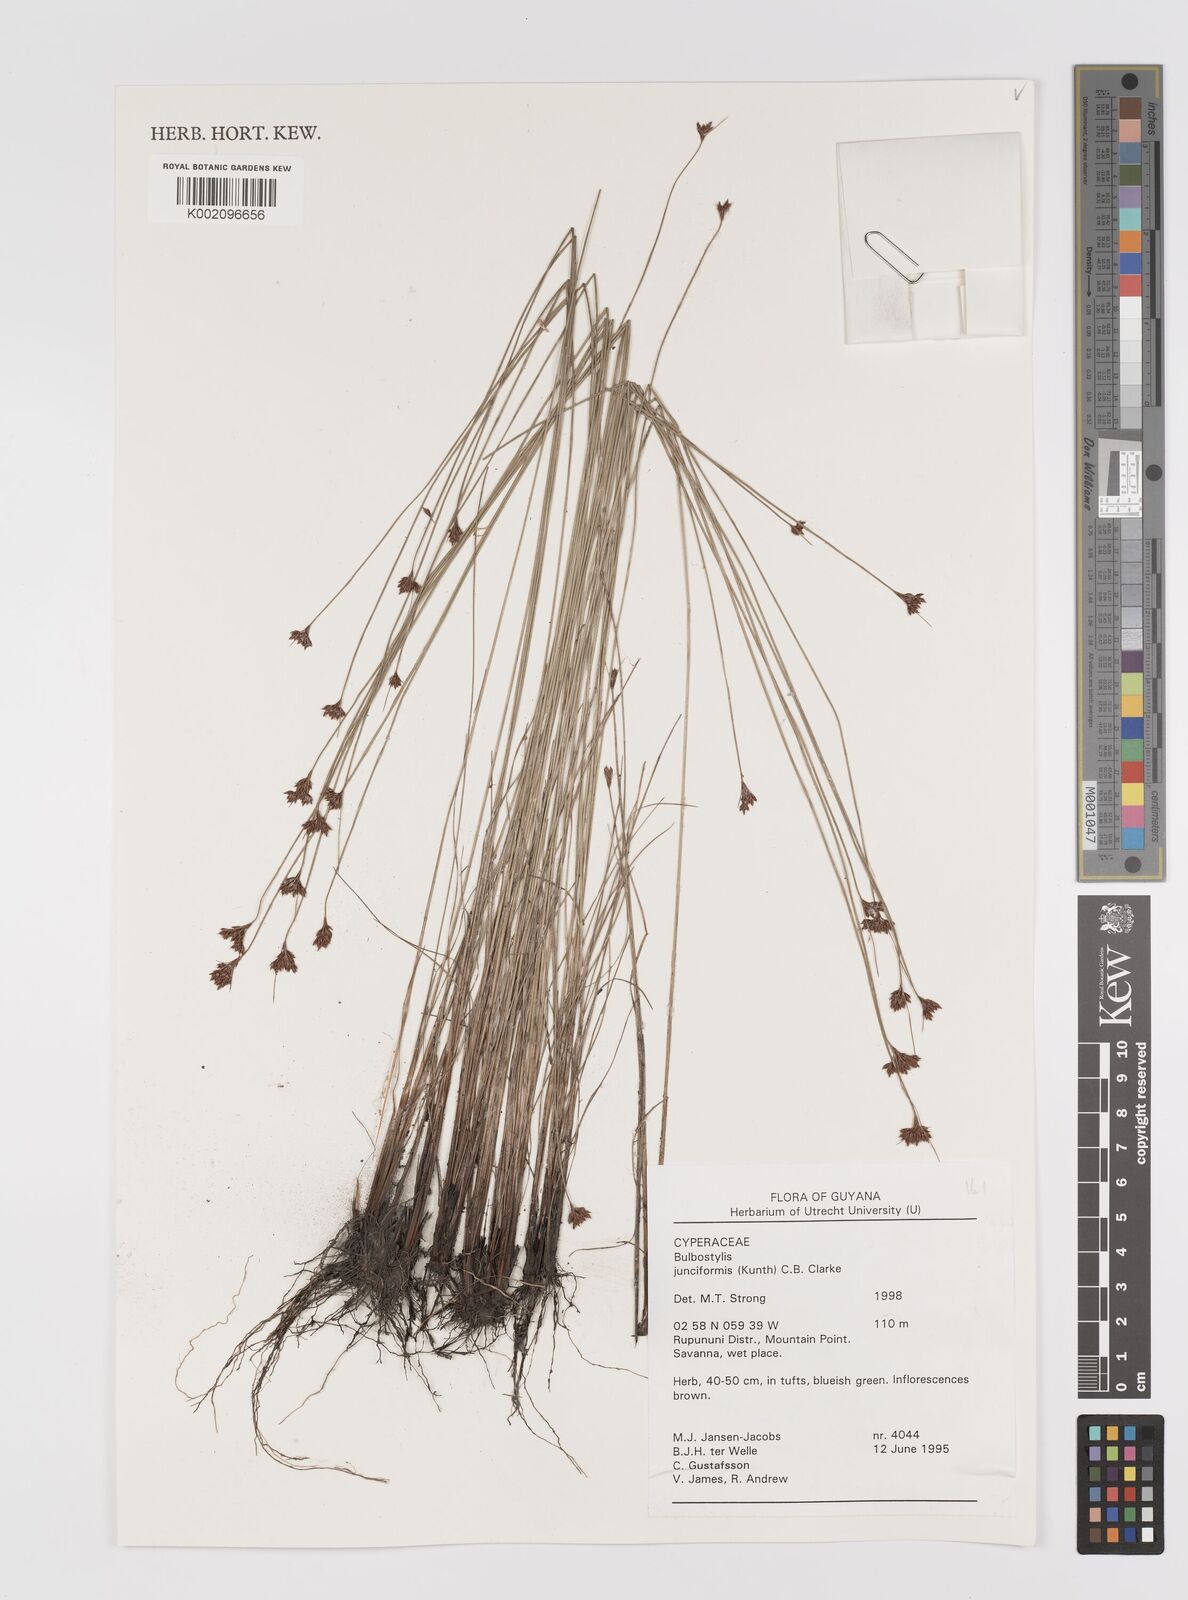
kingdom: Plantae
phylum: Tracheophyta
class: Liliopsida
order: Poales
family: Cyperaceae
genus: Bulbostylis
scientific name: Bulbostylis junciformis
